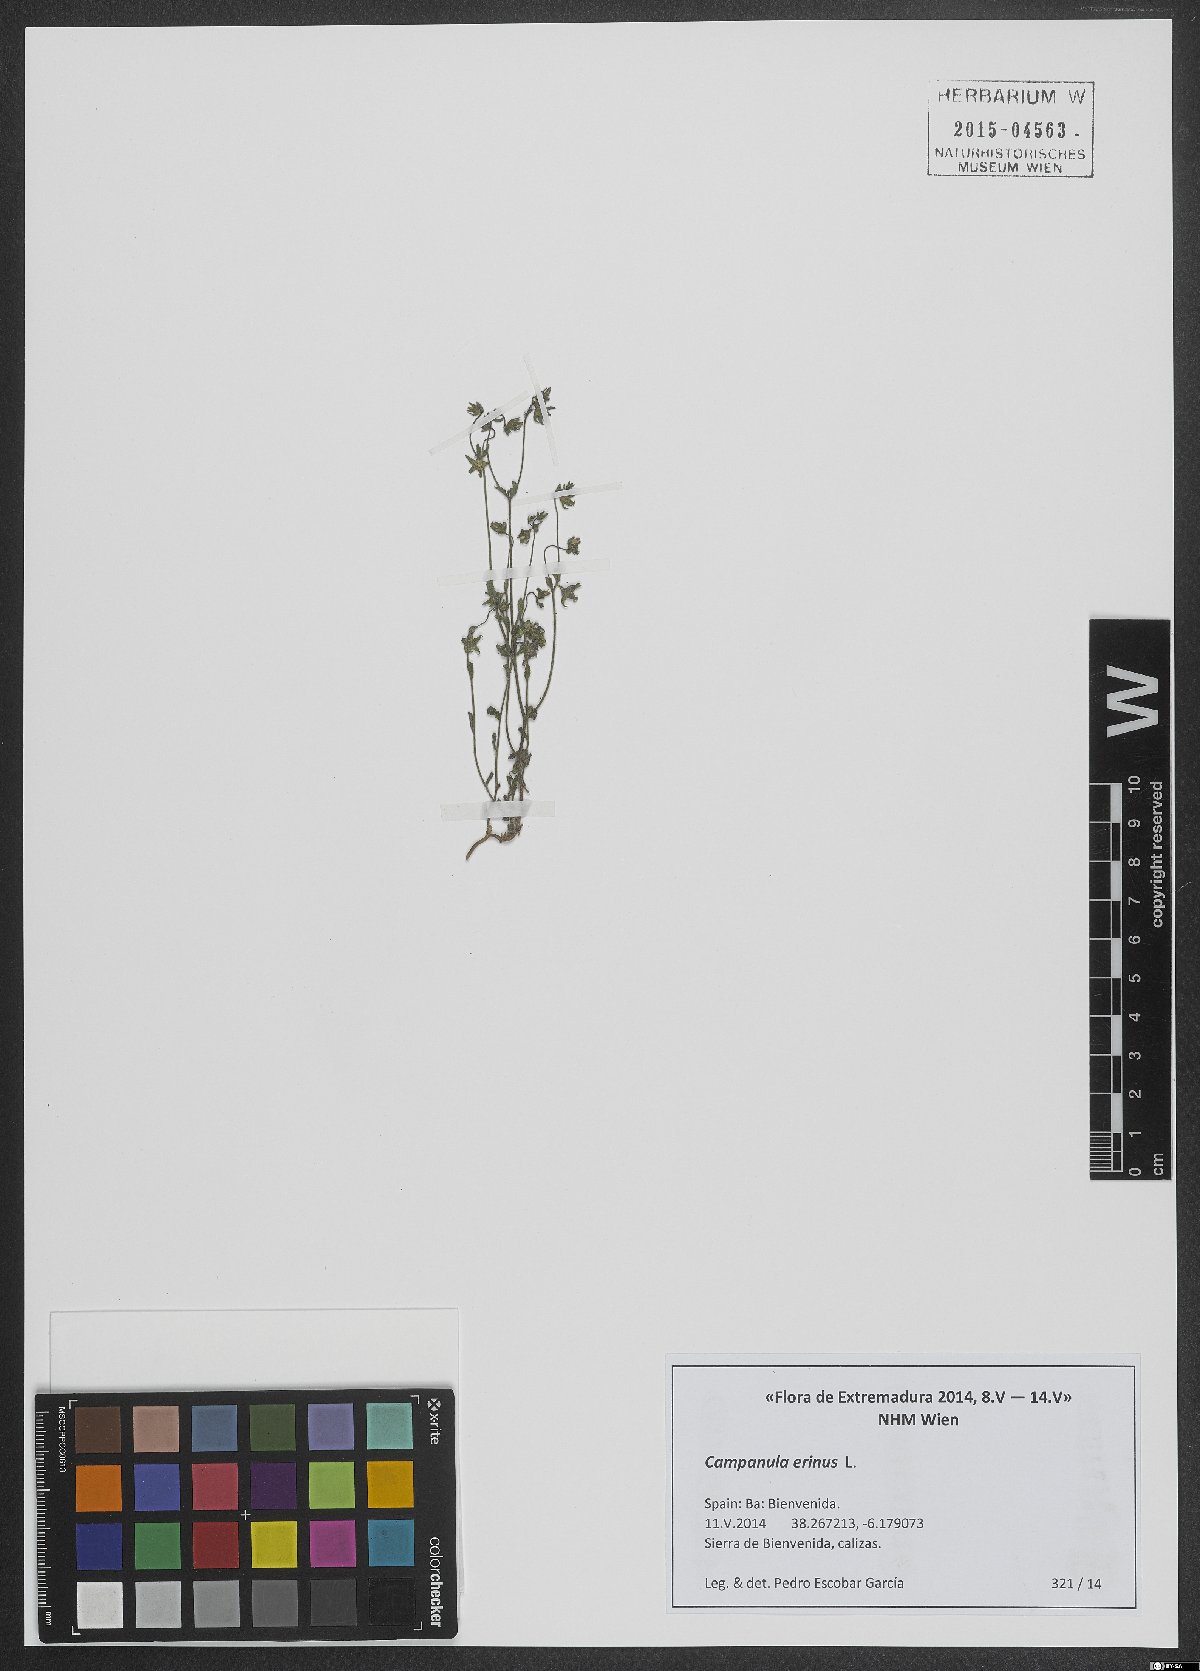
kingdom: Plantae
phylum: Tracheophyta
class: Magnoliopsida
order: Asterales
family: Campanulaceae
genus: Campanula
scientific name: Campanula erinus
